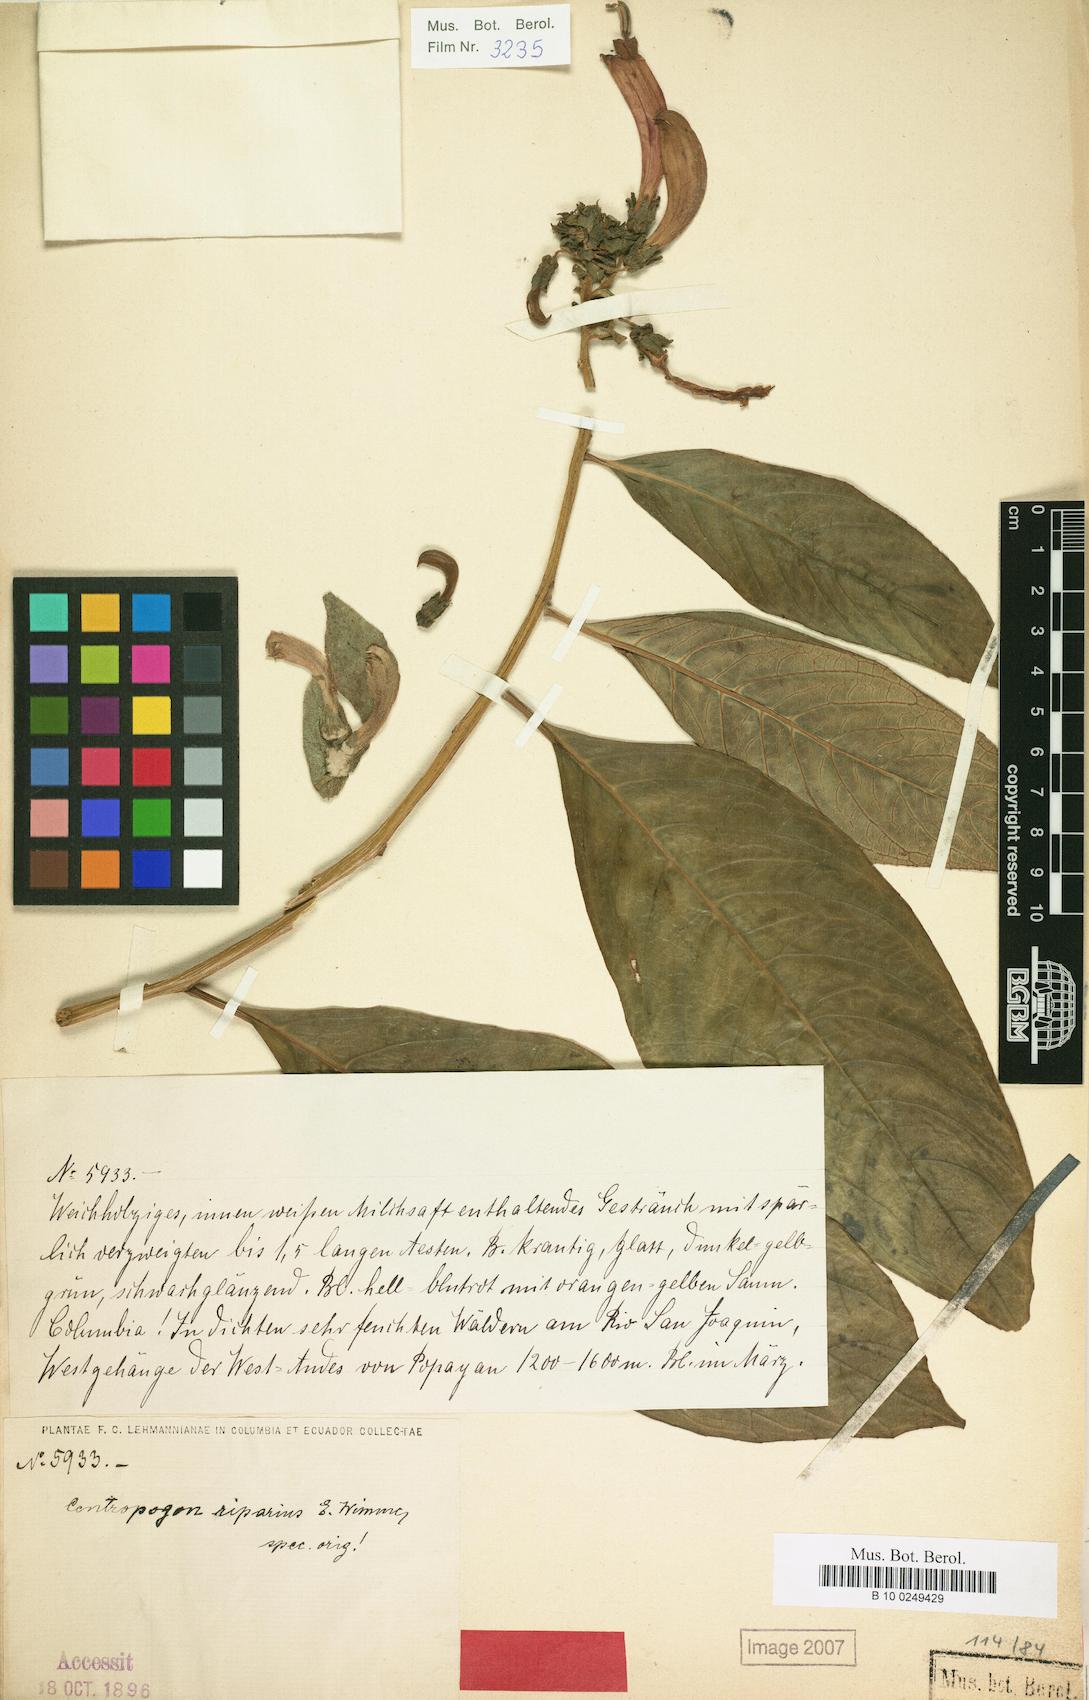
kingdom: Plantae
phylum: Tracheophyta
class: Magnoliopsida
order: Asterales
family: Campanulaceae
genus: Centropogon
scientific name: Centropogon solanifolius
